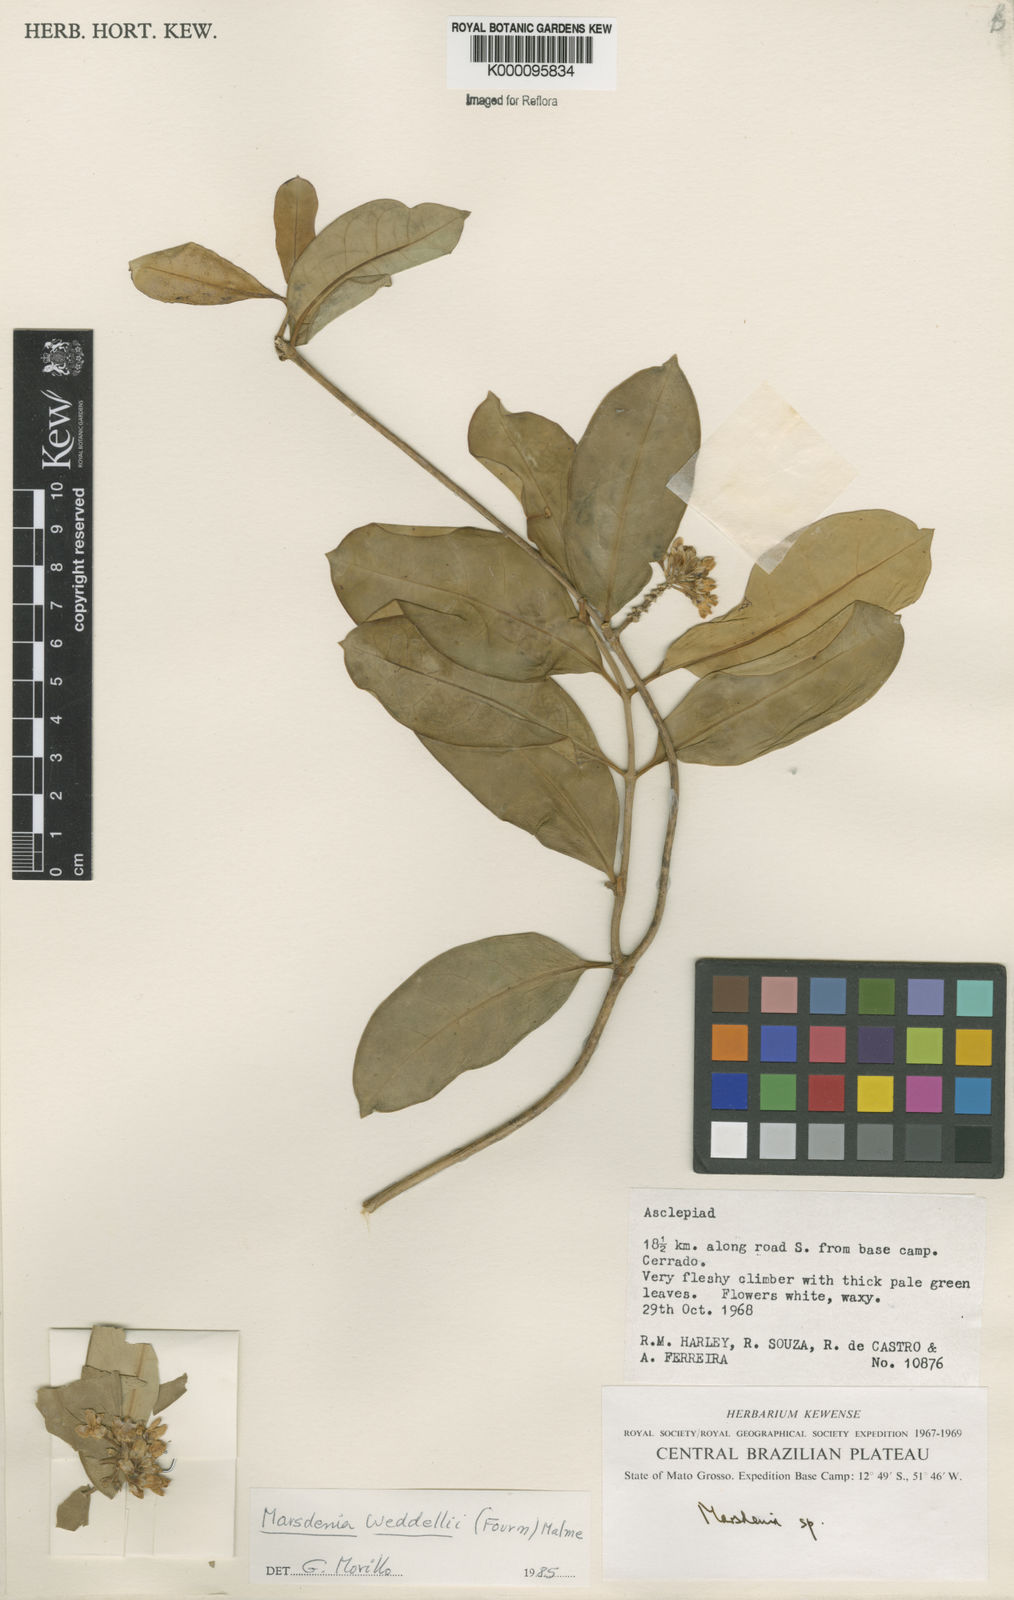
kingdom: Plantae
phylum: Tracheophyta
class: Magnoliopsida
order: Gentianales
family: Apocynaceae
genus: Ruehssia
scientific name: Ruehssia weddellii
